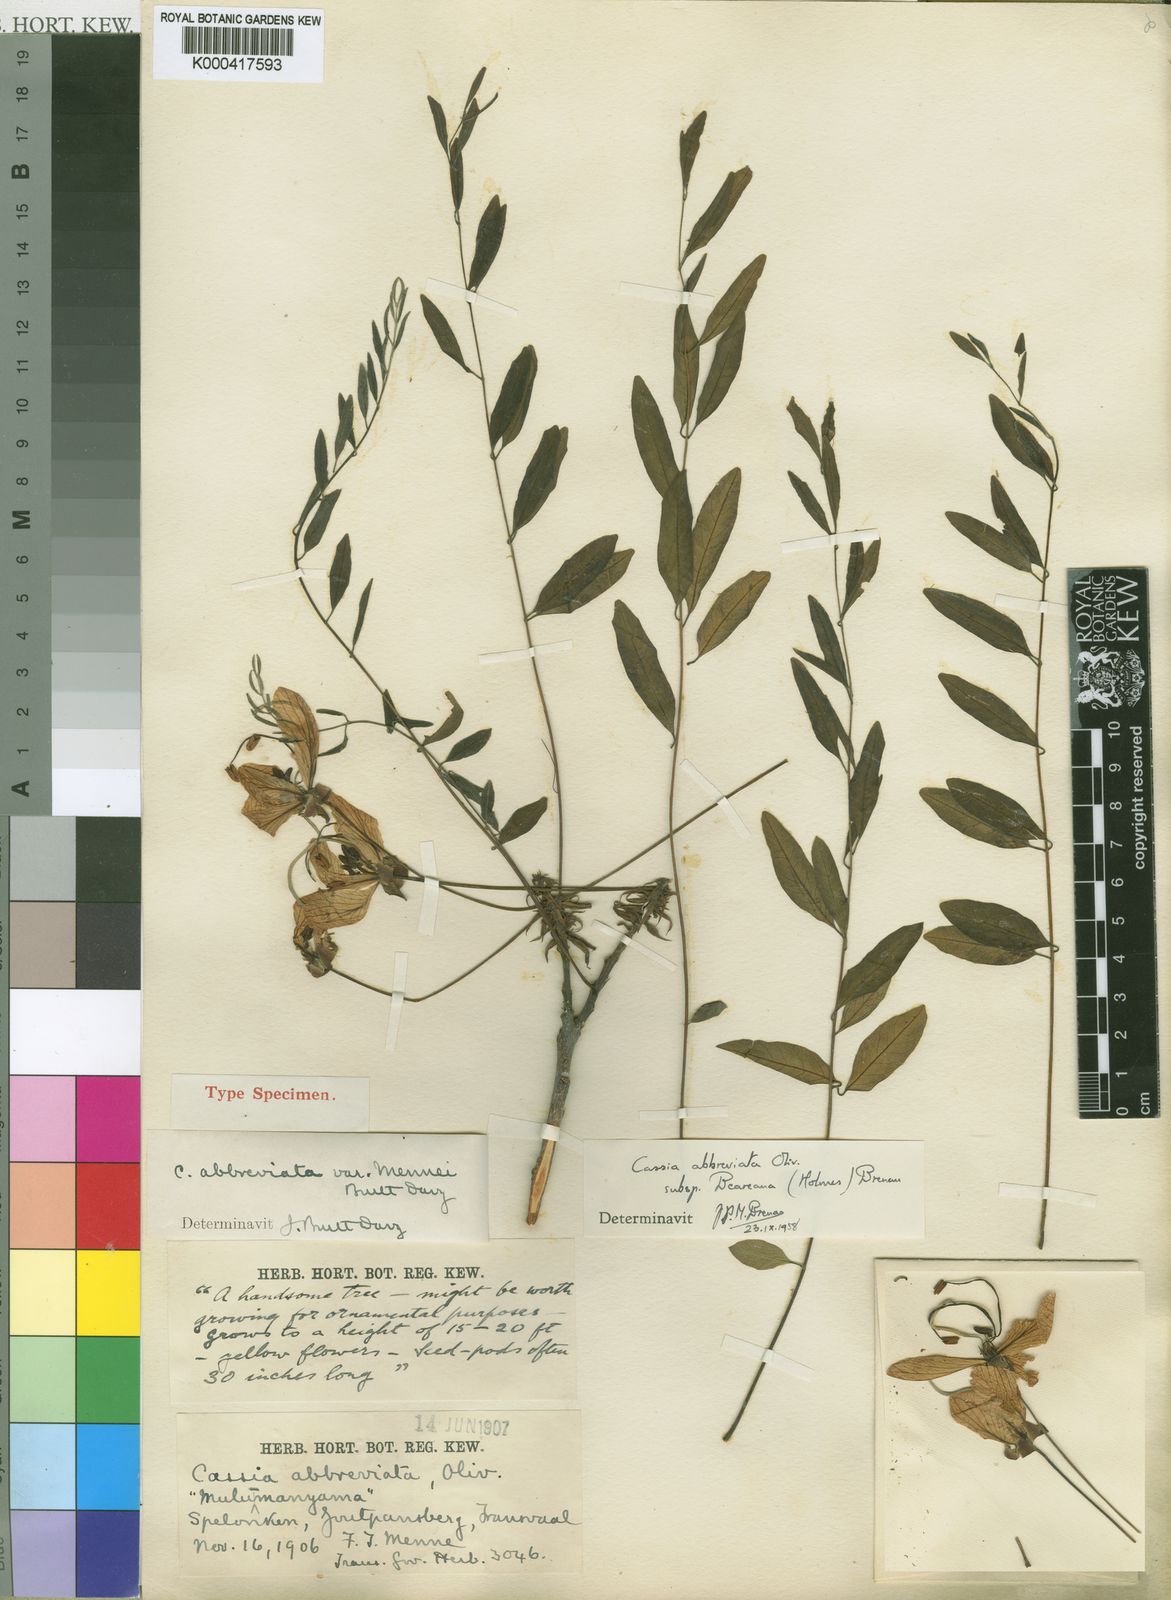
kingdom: Plantae
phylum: Tracheophyta
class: Magnoliopsida
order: Fabales
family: Fabaceae
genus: Cassia
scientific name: Cassia abbreviata
